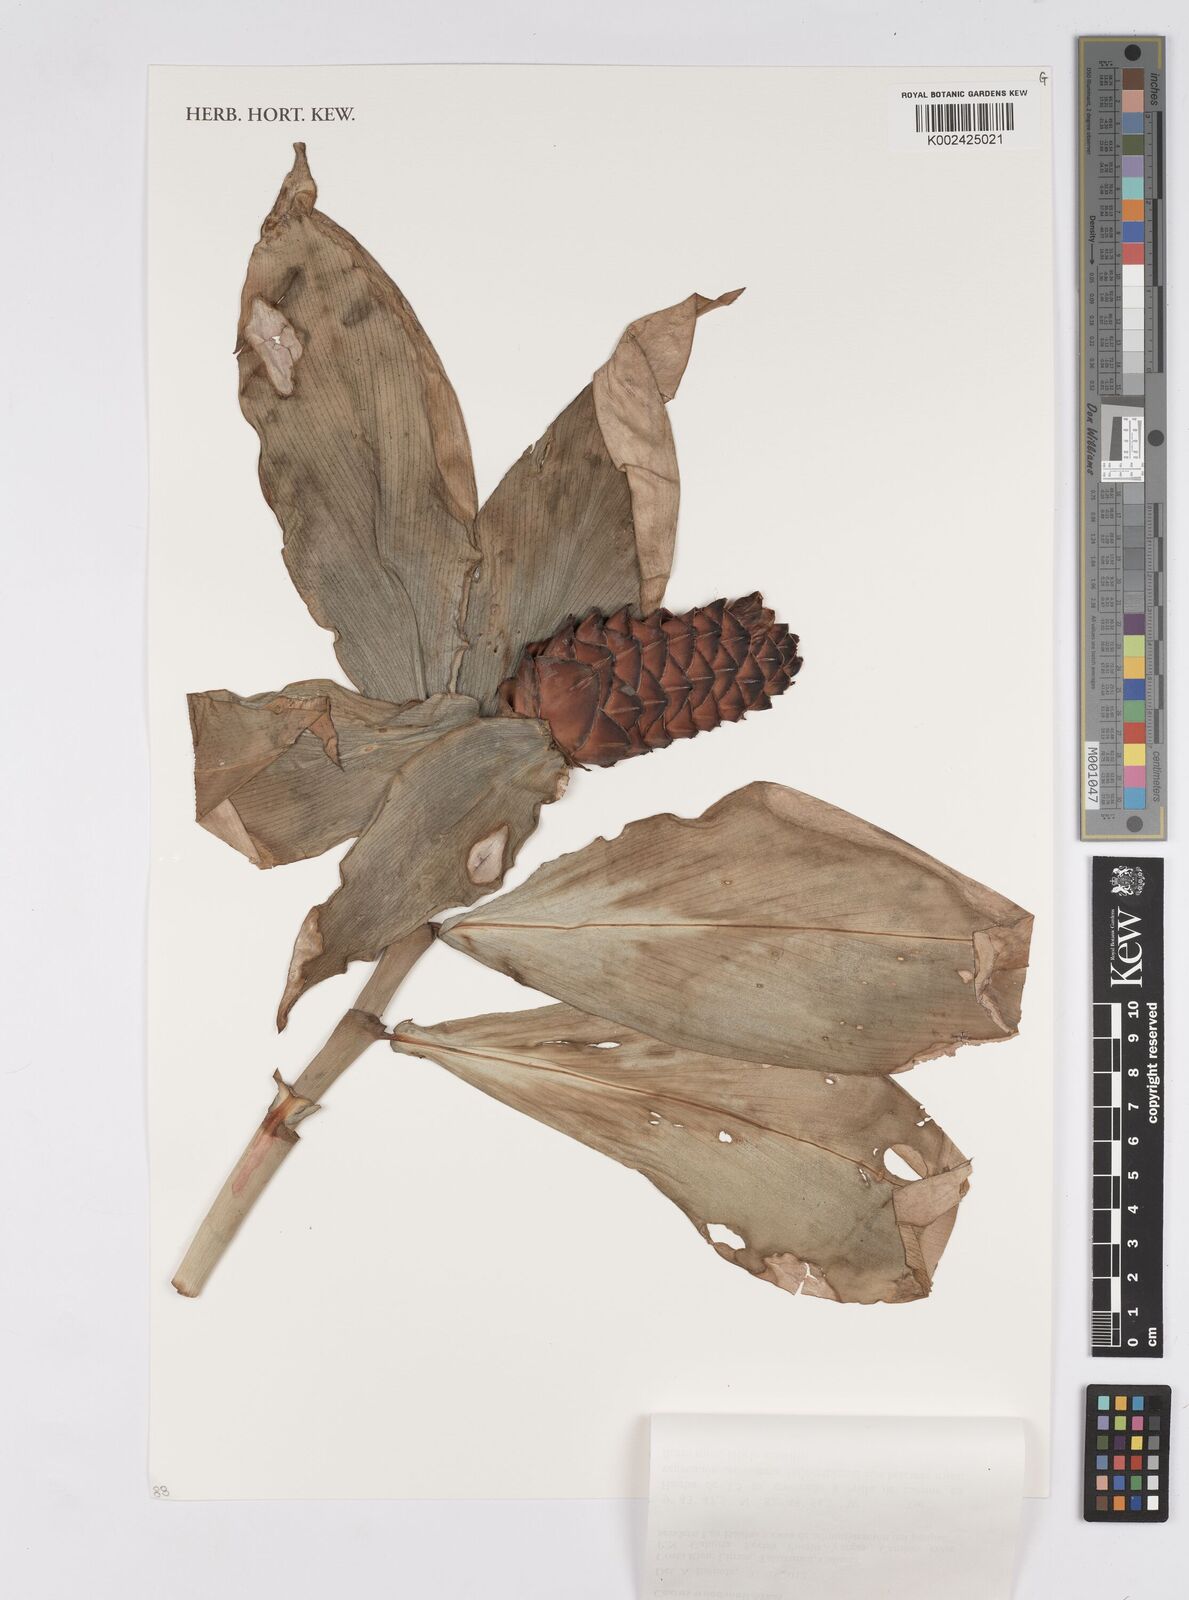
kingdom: Plantae
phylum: Tracheophyta
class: Liliopsida
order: Zingiberales
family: Costaceae
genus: Costus
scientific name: Costus woodsonii
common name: Scarlet spiral-ginger
